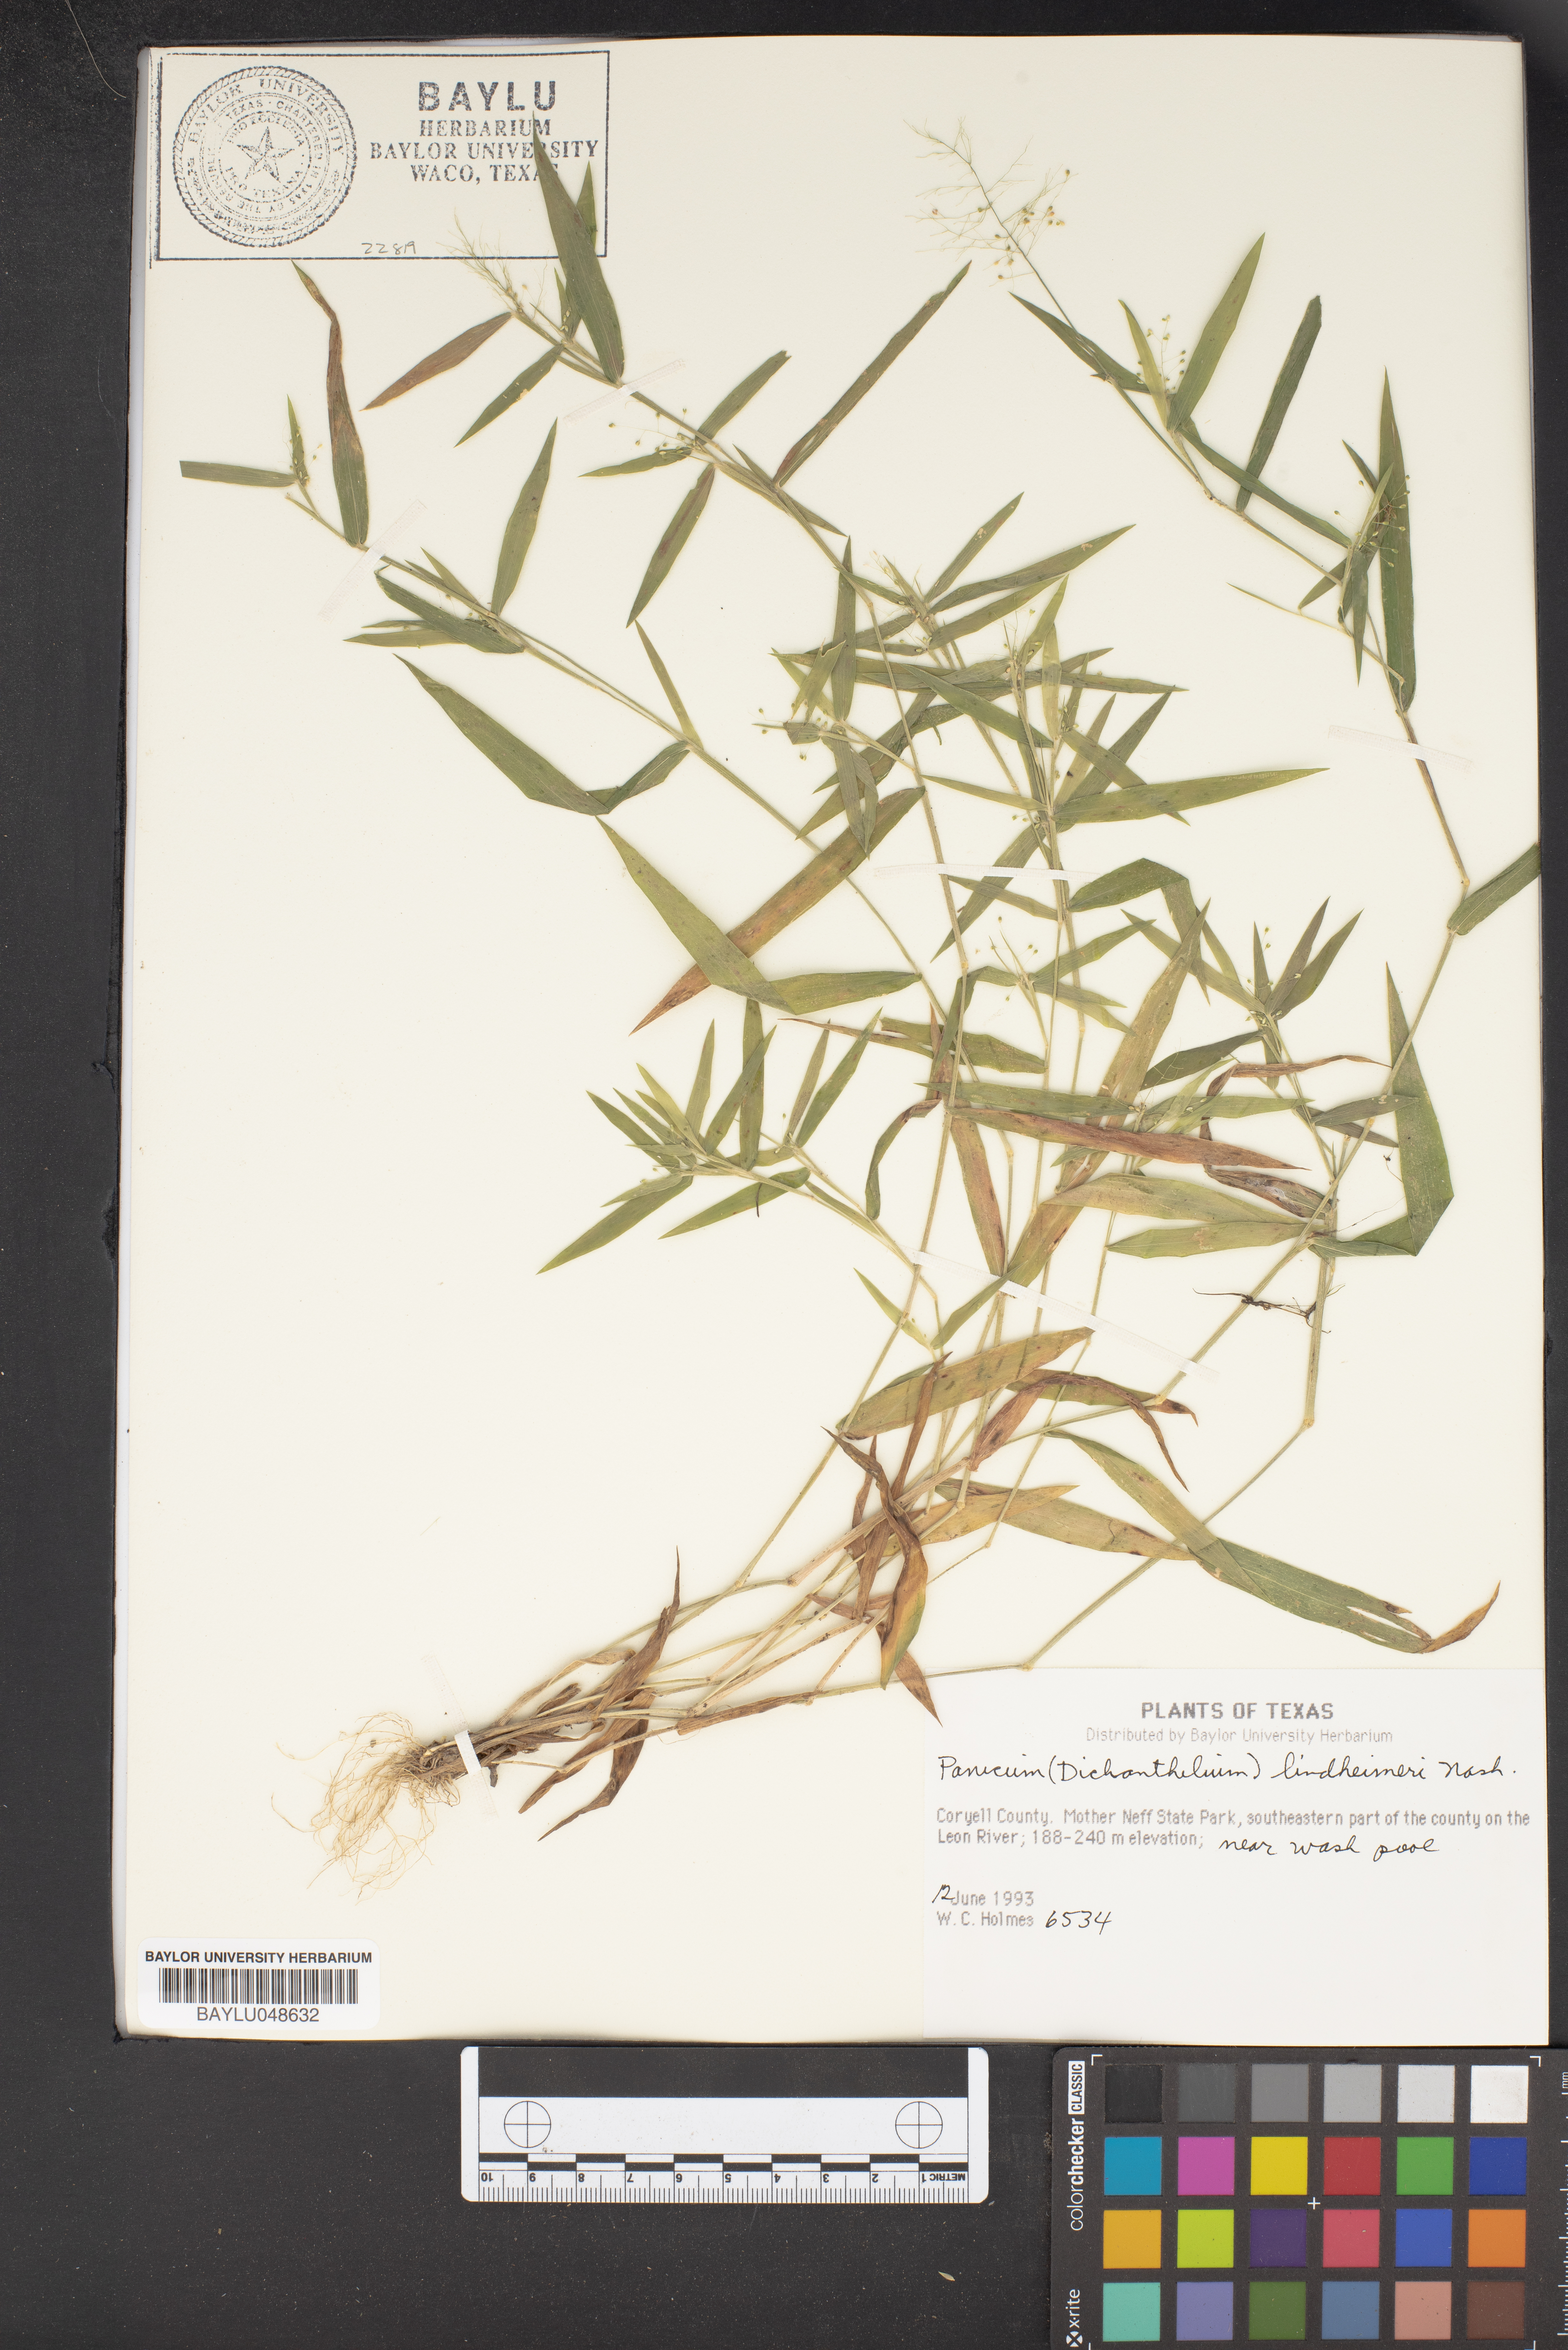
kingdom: Plantae
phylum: Tracheophyta
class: Liliopsida
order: Poales
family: Poaceae
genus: Dichanthelium
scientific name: Dichanthelium lindheimeri
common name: Lindheimer's panicgrass
